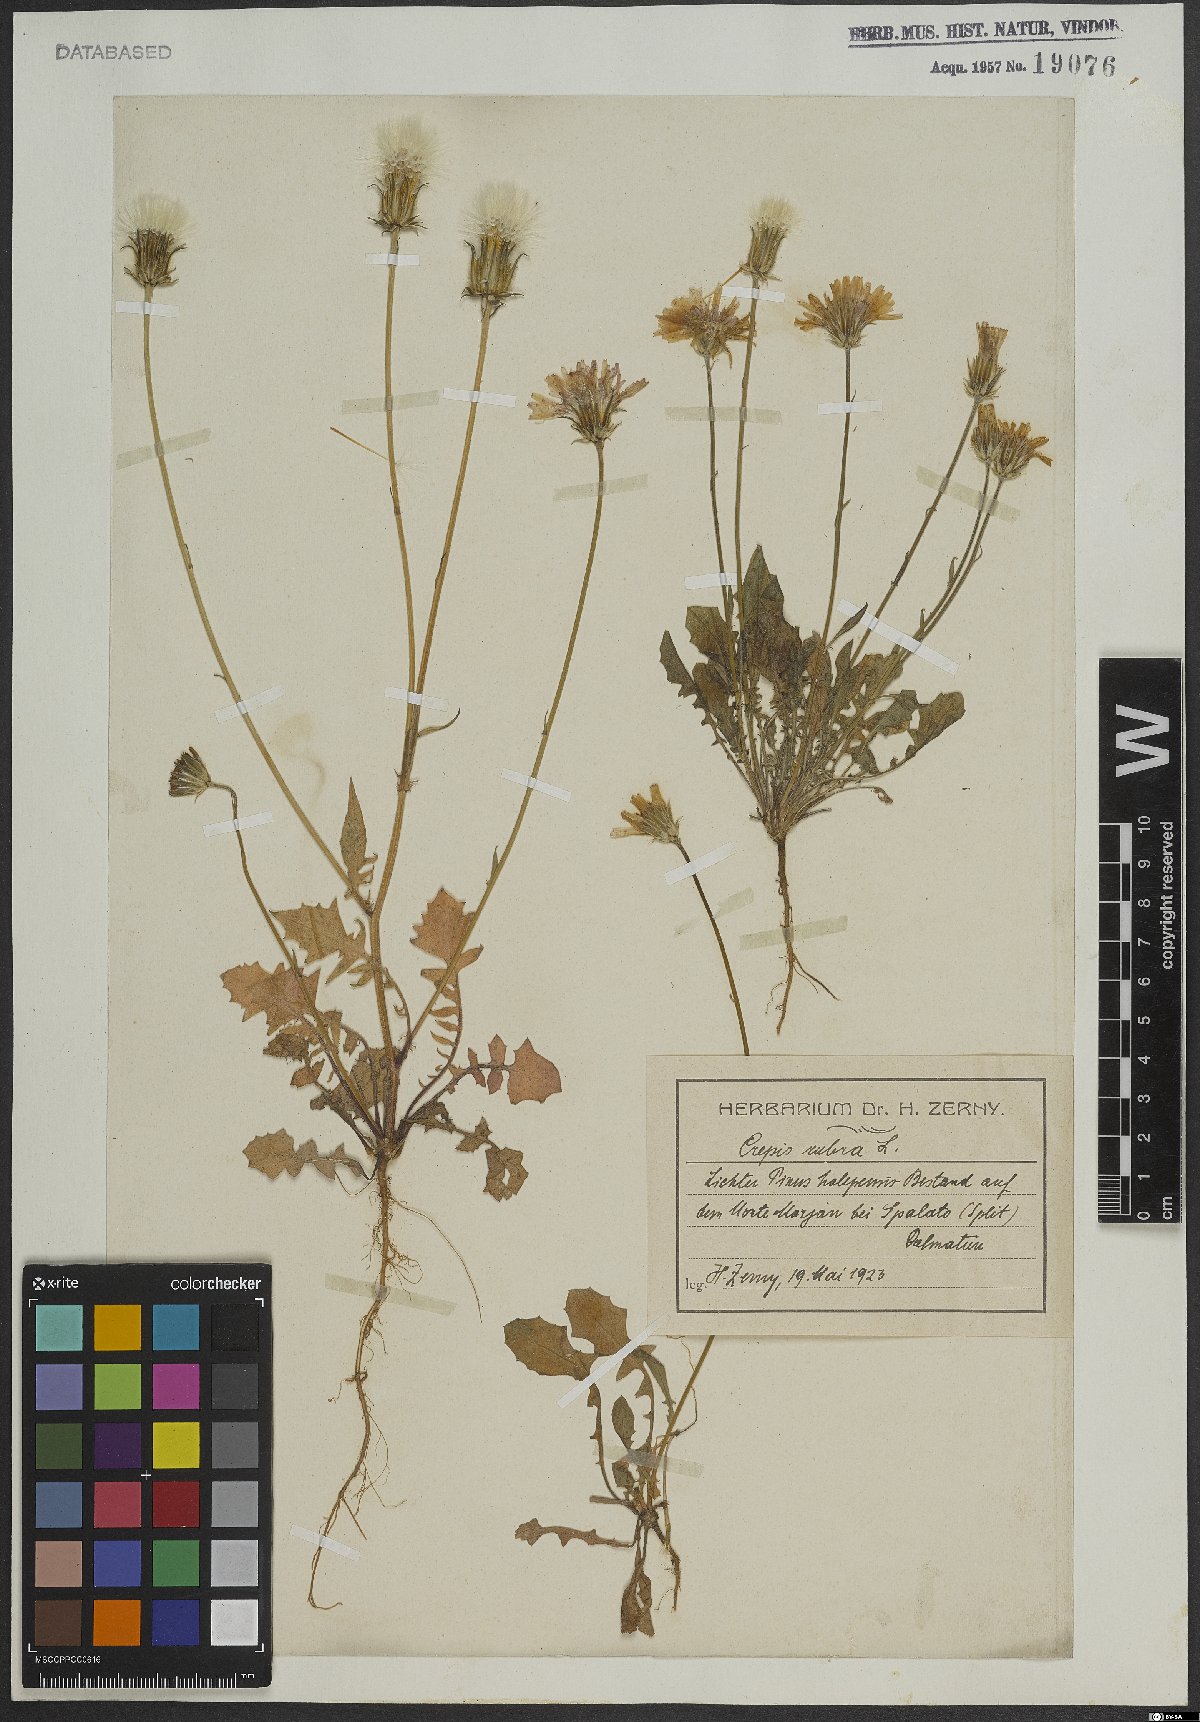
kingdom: Plantae
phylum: Tracheophyta
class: Magnoliopsida
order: Asterales
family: Asteraceae
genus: Crepis
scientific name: Crepis rubra
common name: Pink hawk's-beard
